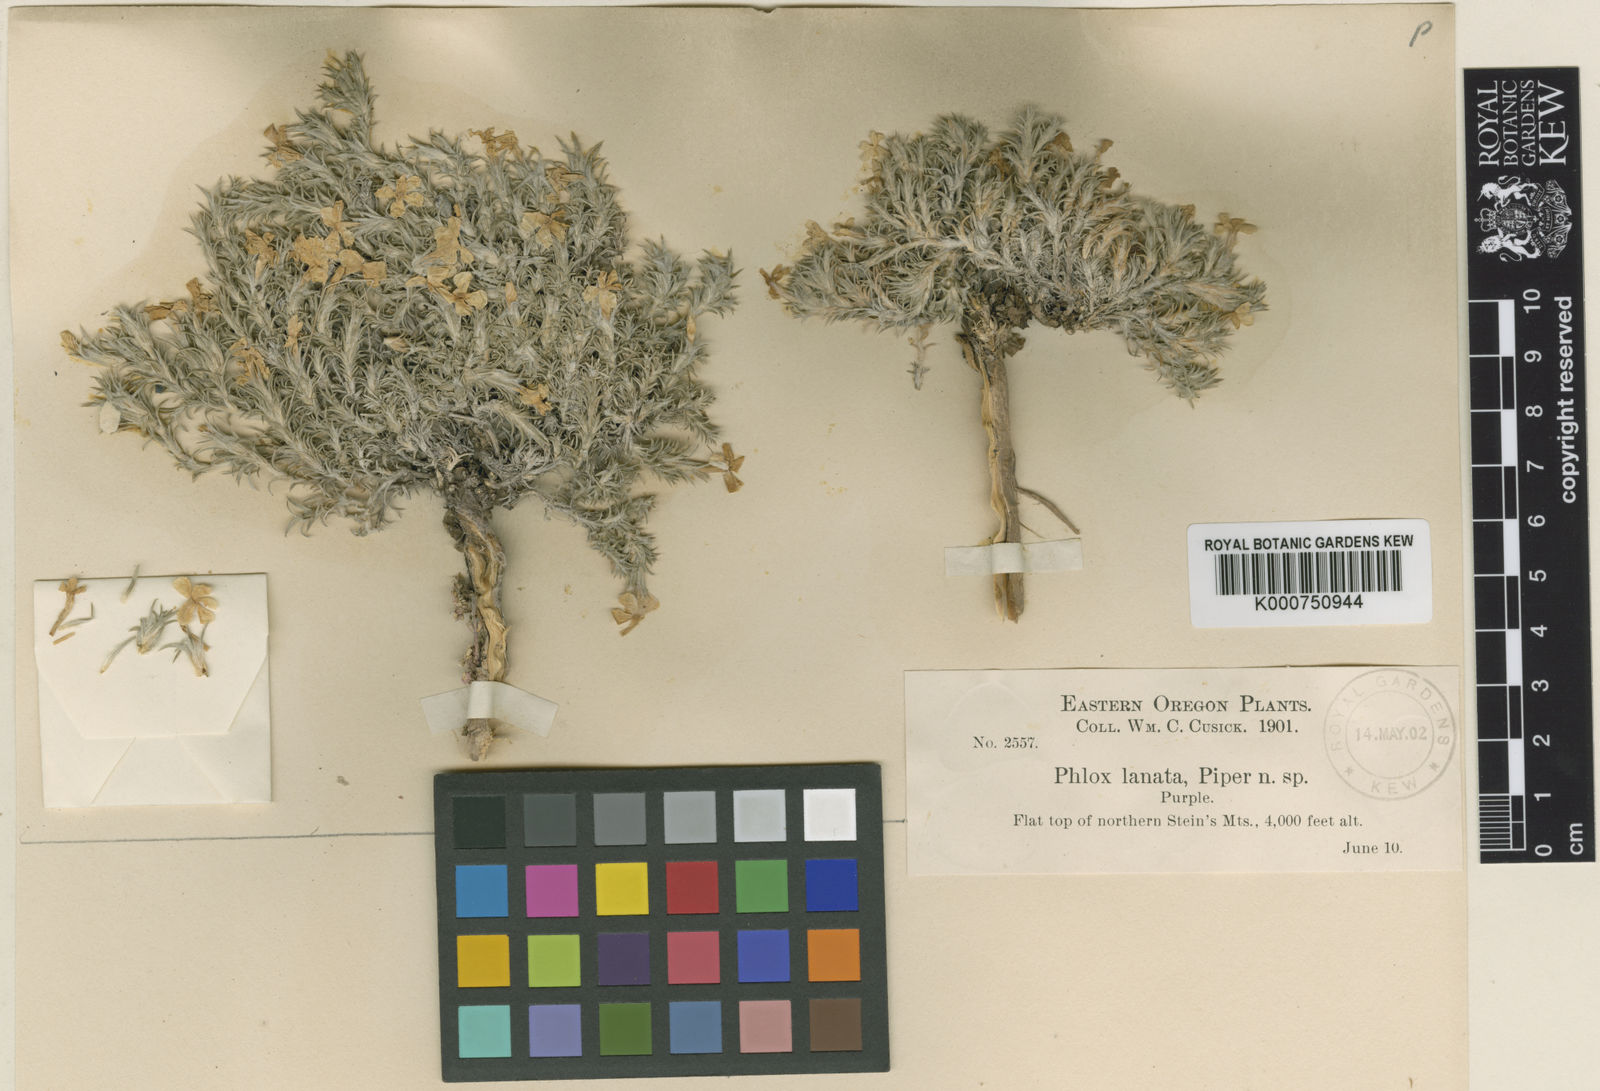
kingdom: Plantae
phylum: Tracheophyta
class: Magnoliopsida
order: Ericales
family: Polemoniaceae
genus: Phlox
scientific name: Phlox hoodii
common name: Moss phlox
